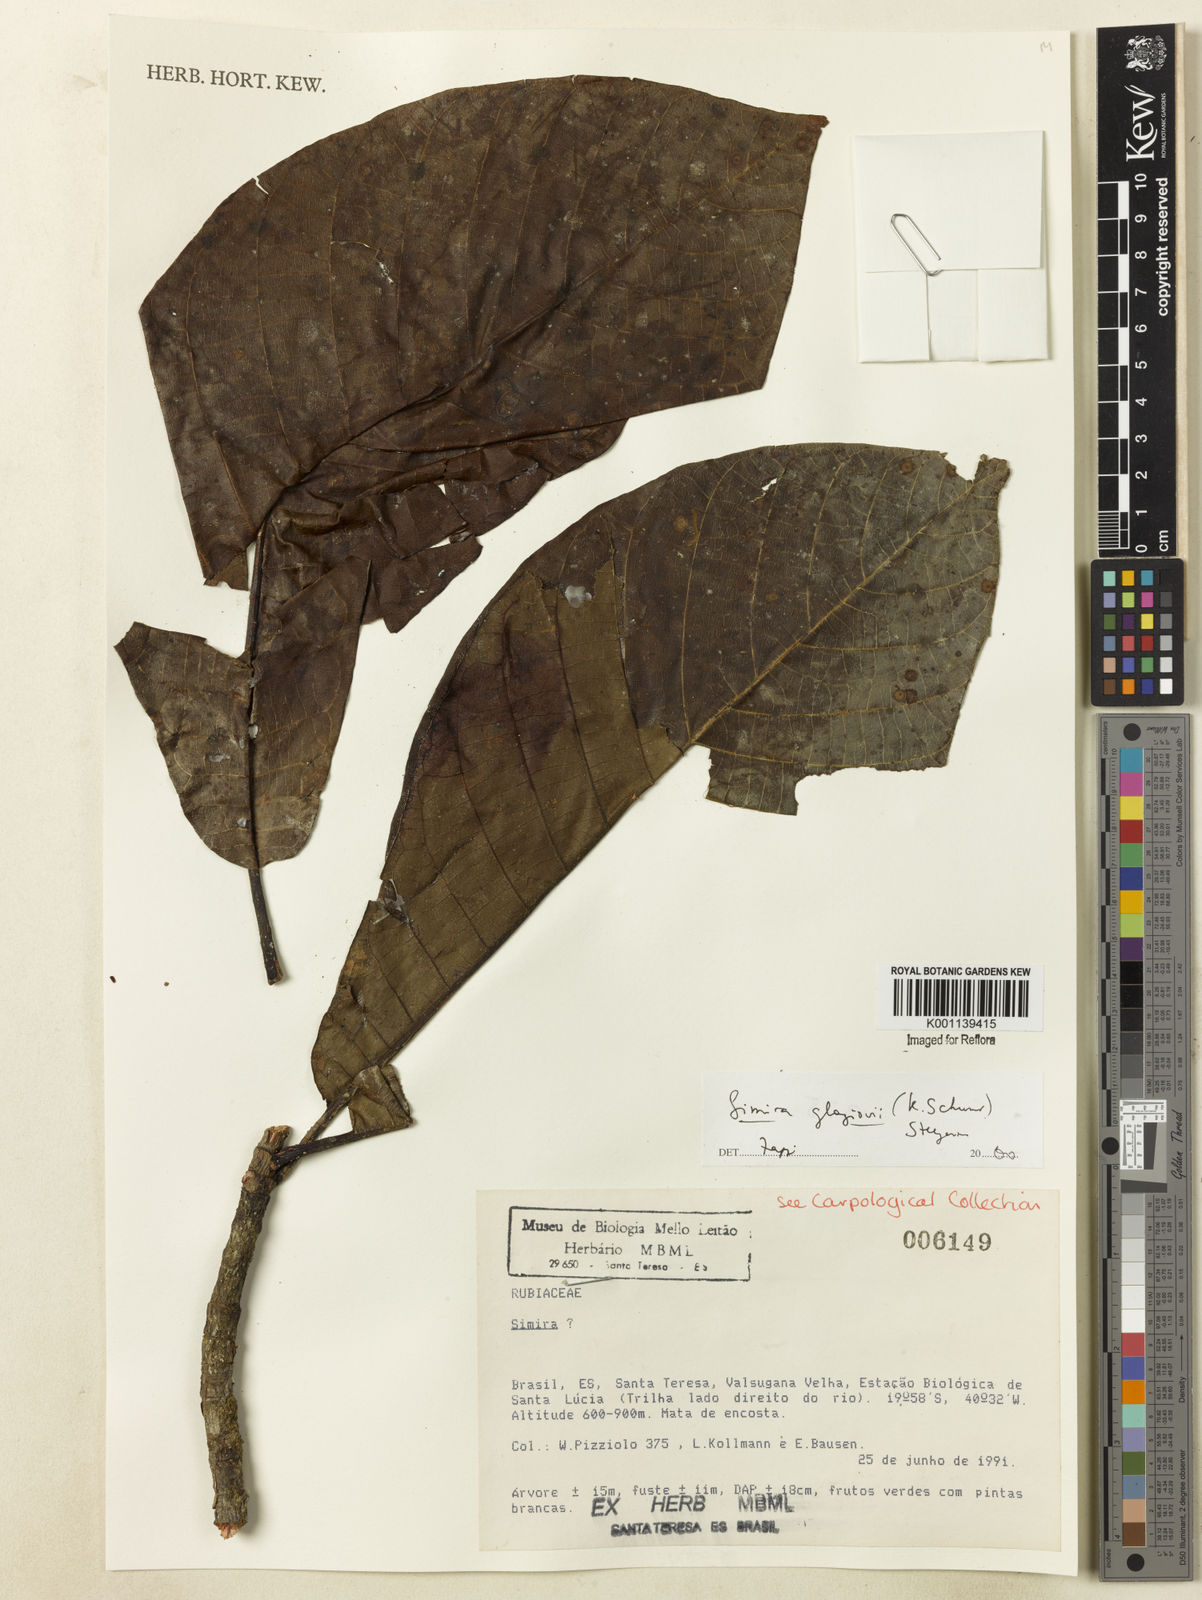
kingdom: Plantae
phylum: Tracheophyta
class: Magnoliopsida
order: Gentianales
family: Rubiaceae
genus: Simira
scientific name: Simira alba
